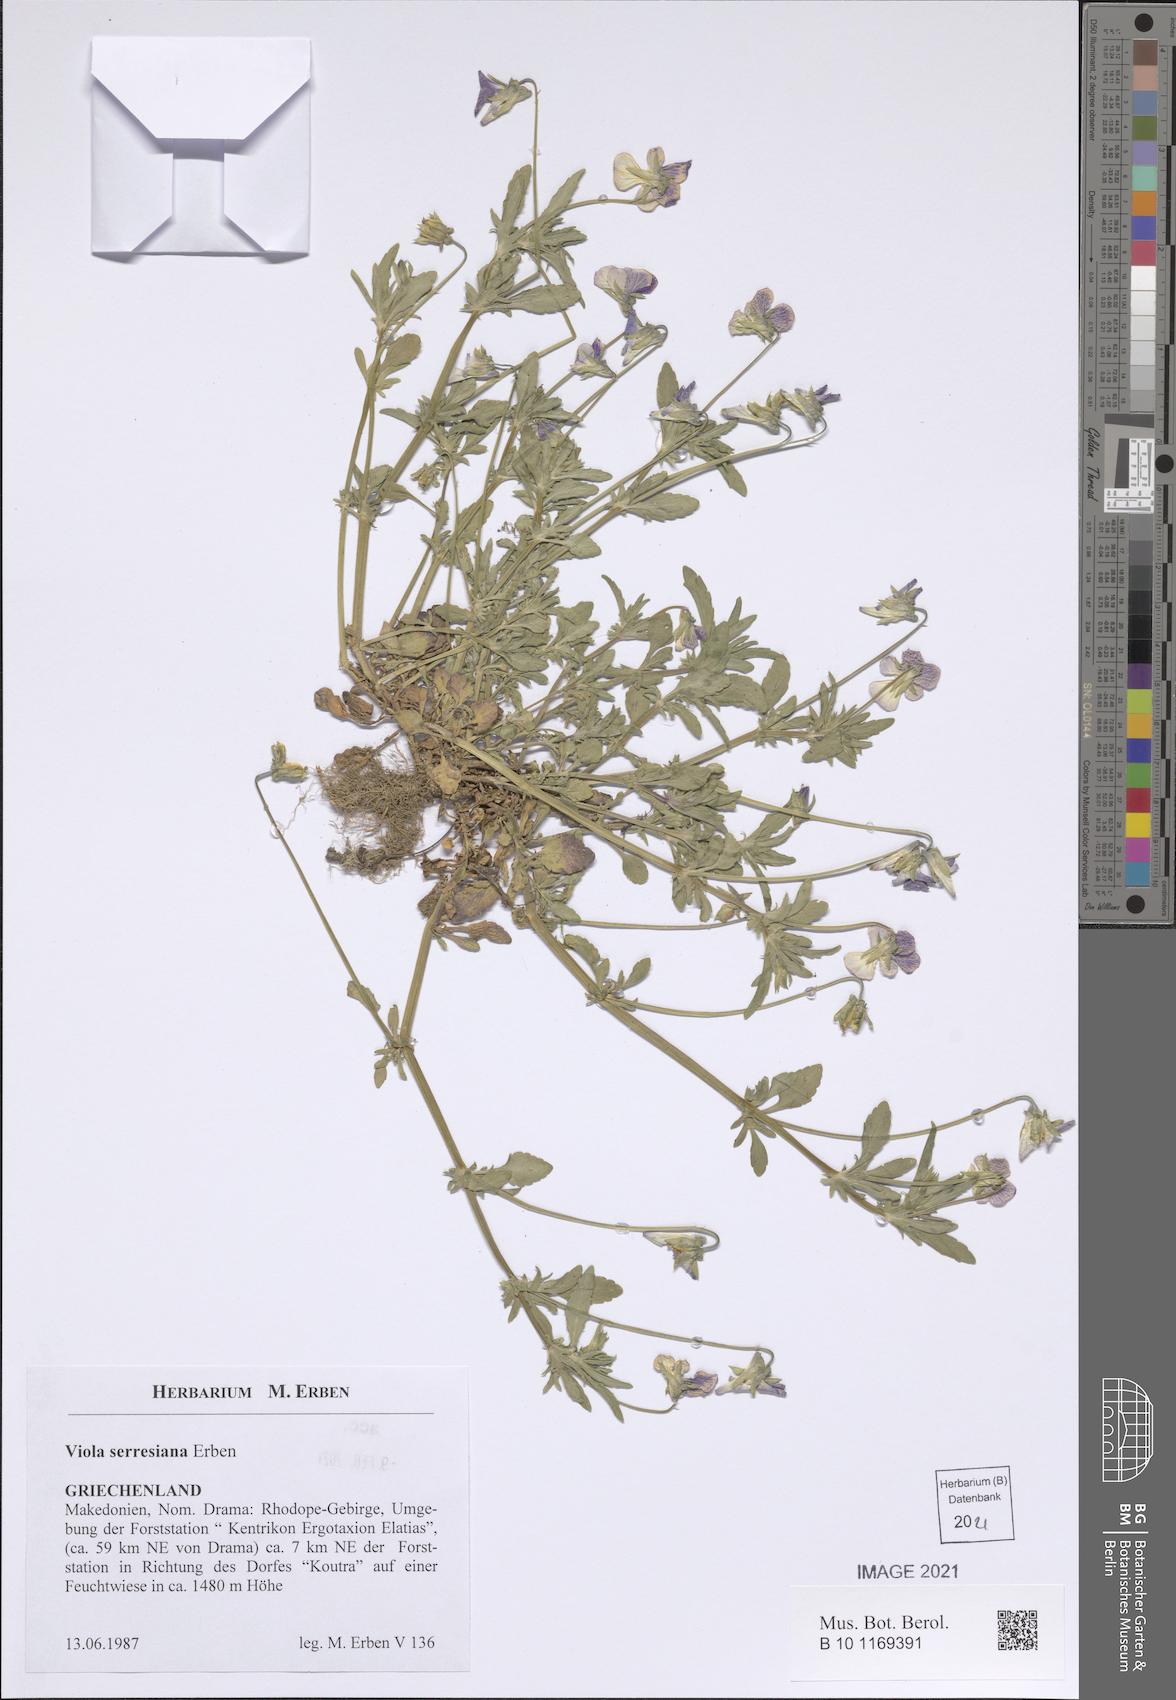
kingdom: Plantae
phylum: Tracheophyta
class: Magnoliopsida
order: Malpighiales
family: Violaceae
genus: Viola
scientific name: Viola serresiana
